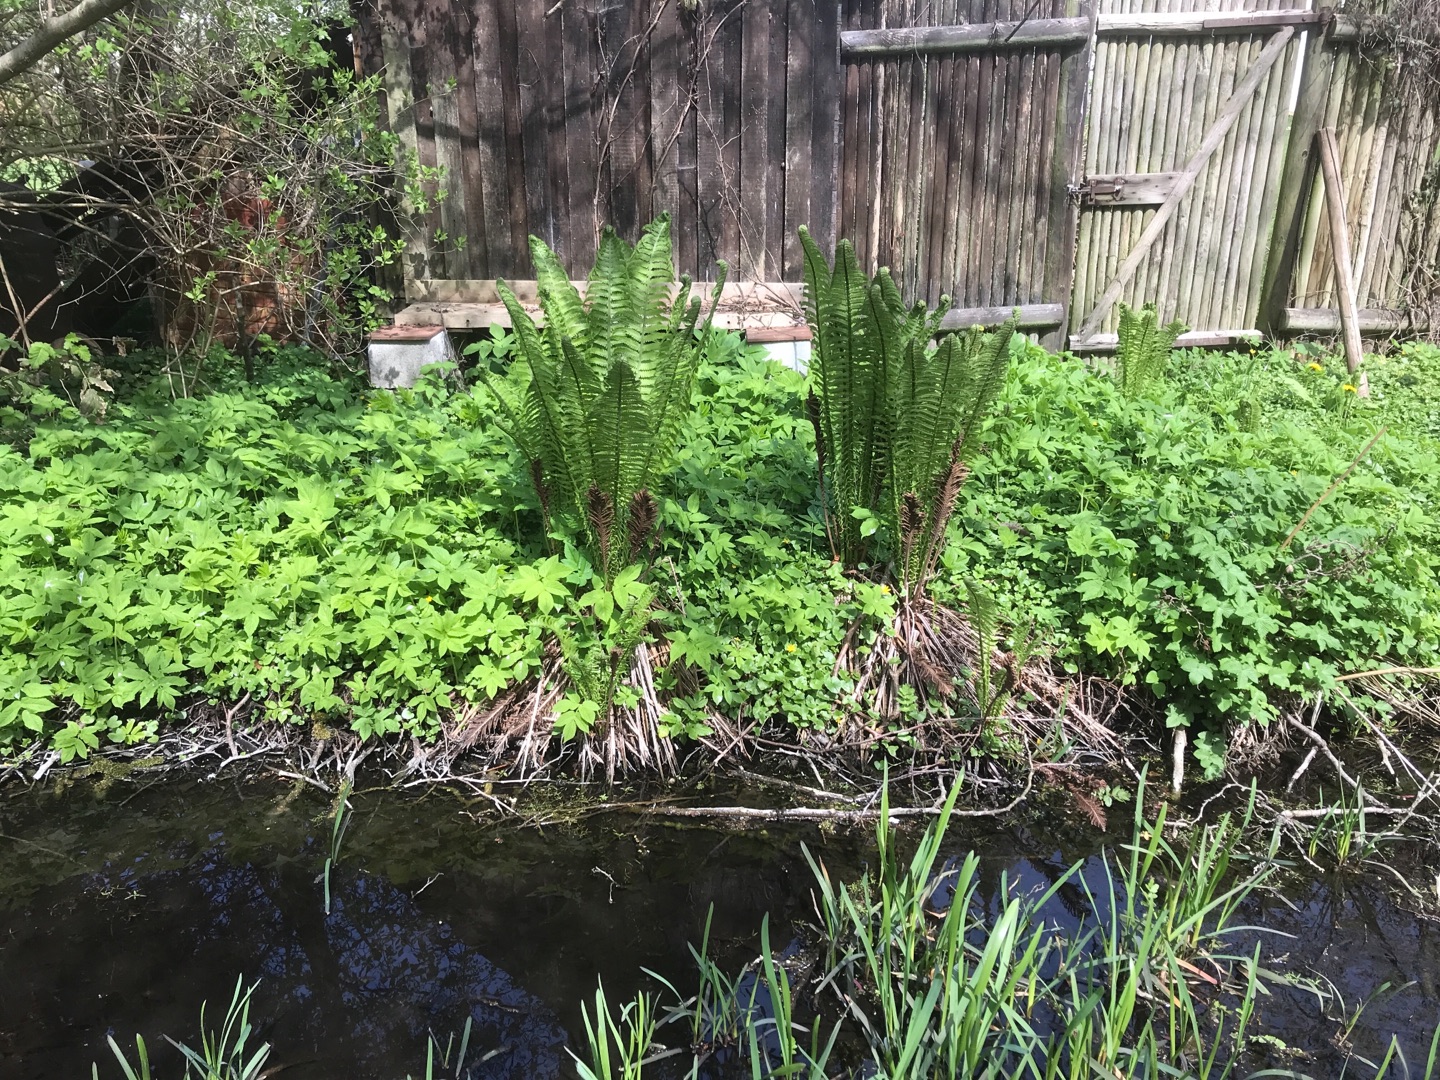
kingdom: Plantae
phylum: Tracheophyta
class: Polypodiopsida
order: Polypodiales
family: Onocleaceae
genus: Matteuccia
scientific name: Matteuccia struthiopteris
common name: Strudsvinge
